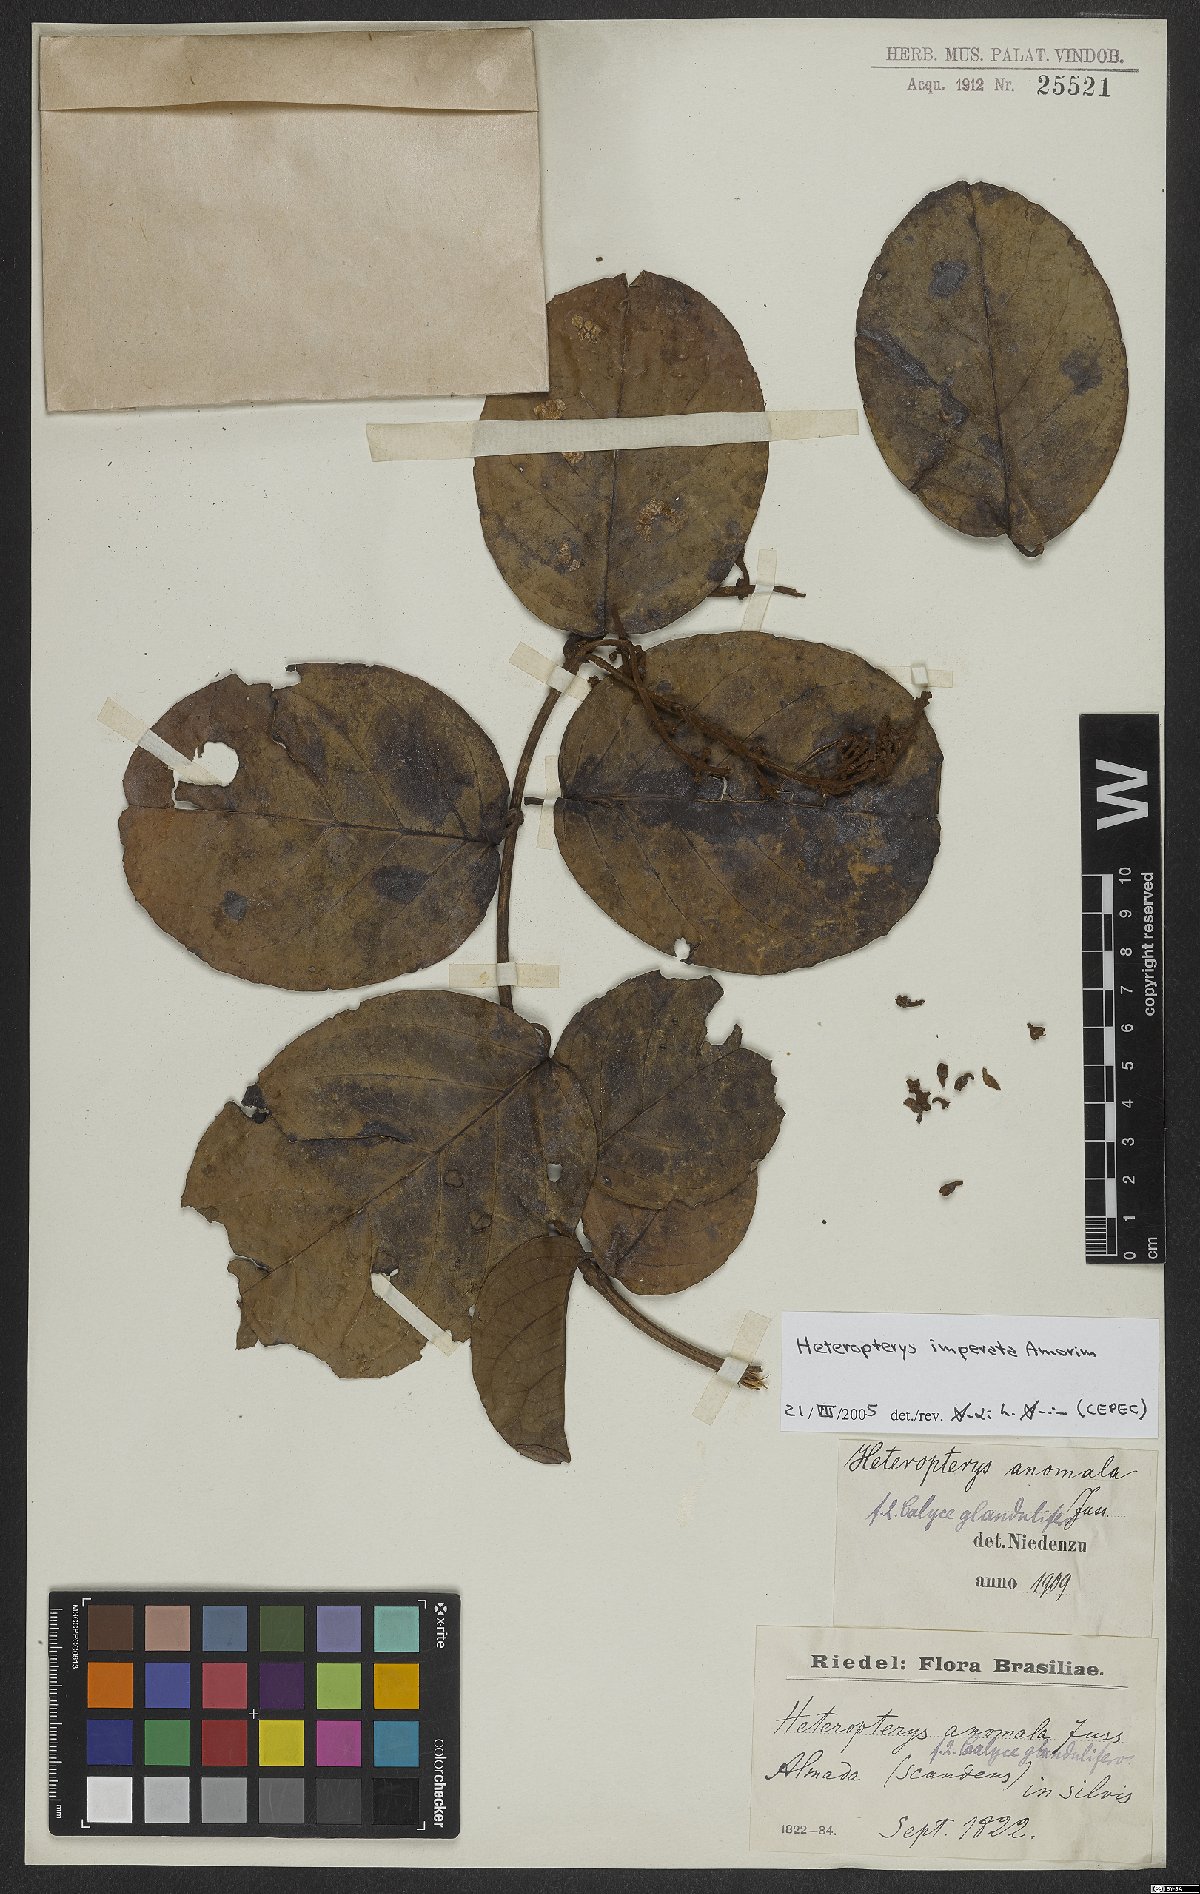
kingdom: Plantae
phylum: Tracheophyta
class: Magnoliopsida
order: Malpighiales
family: Malpighiaceae
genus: Heteropterys
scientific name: Heteropterys imperata
